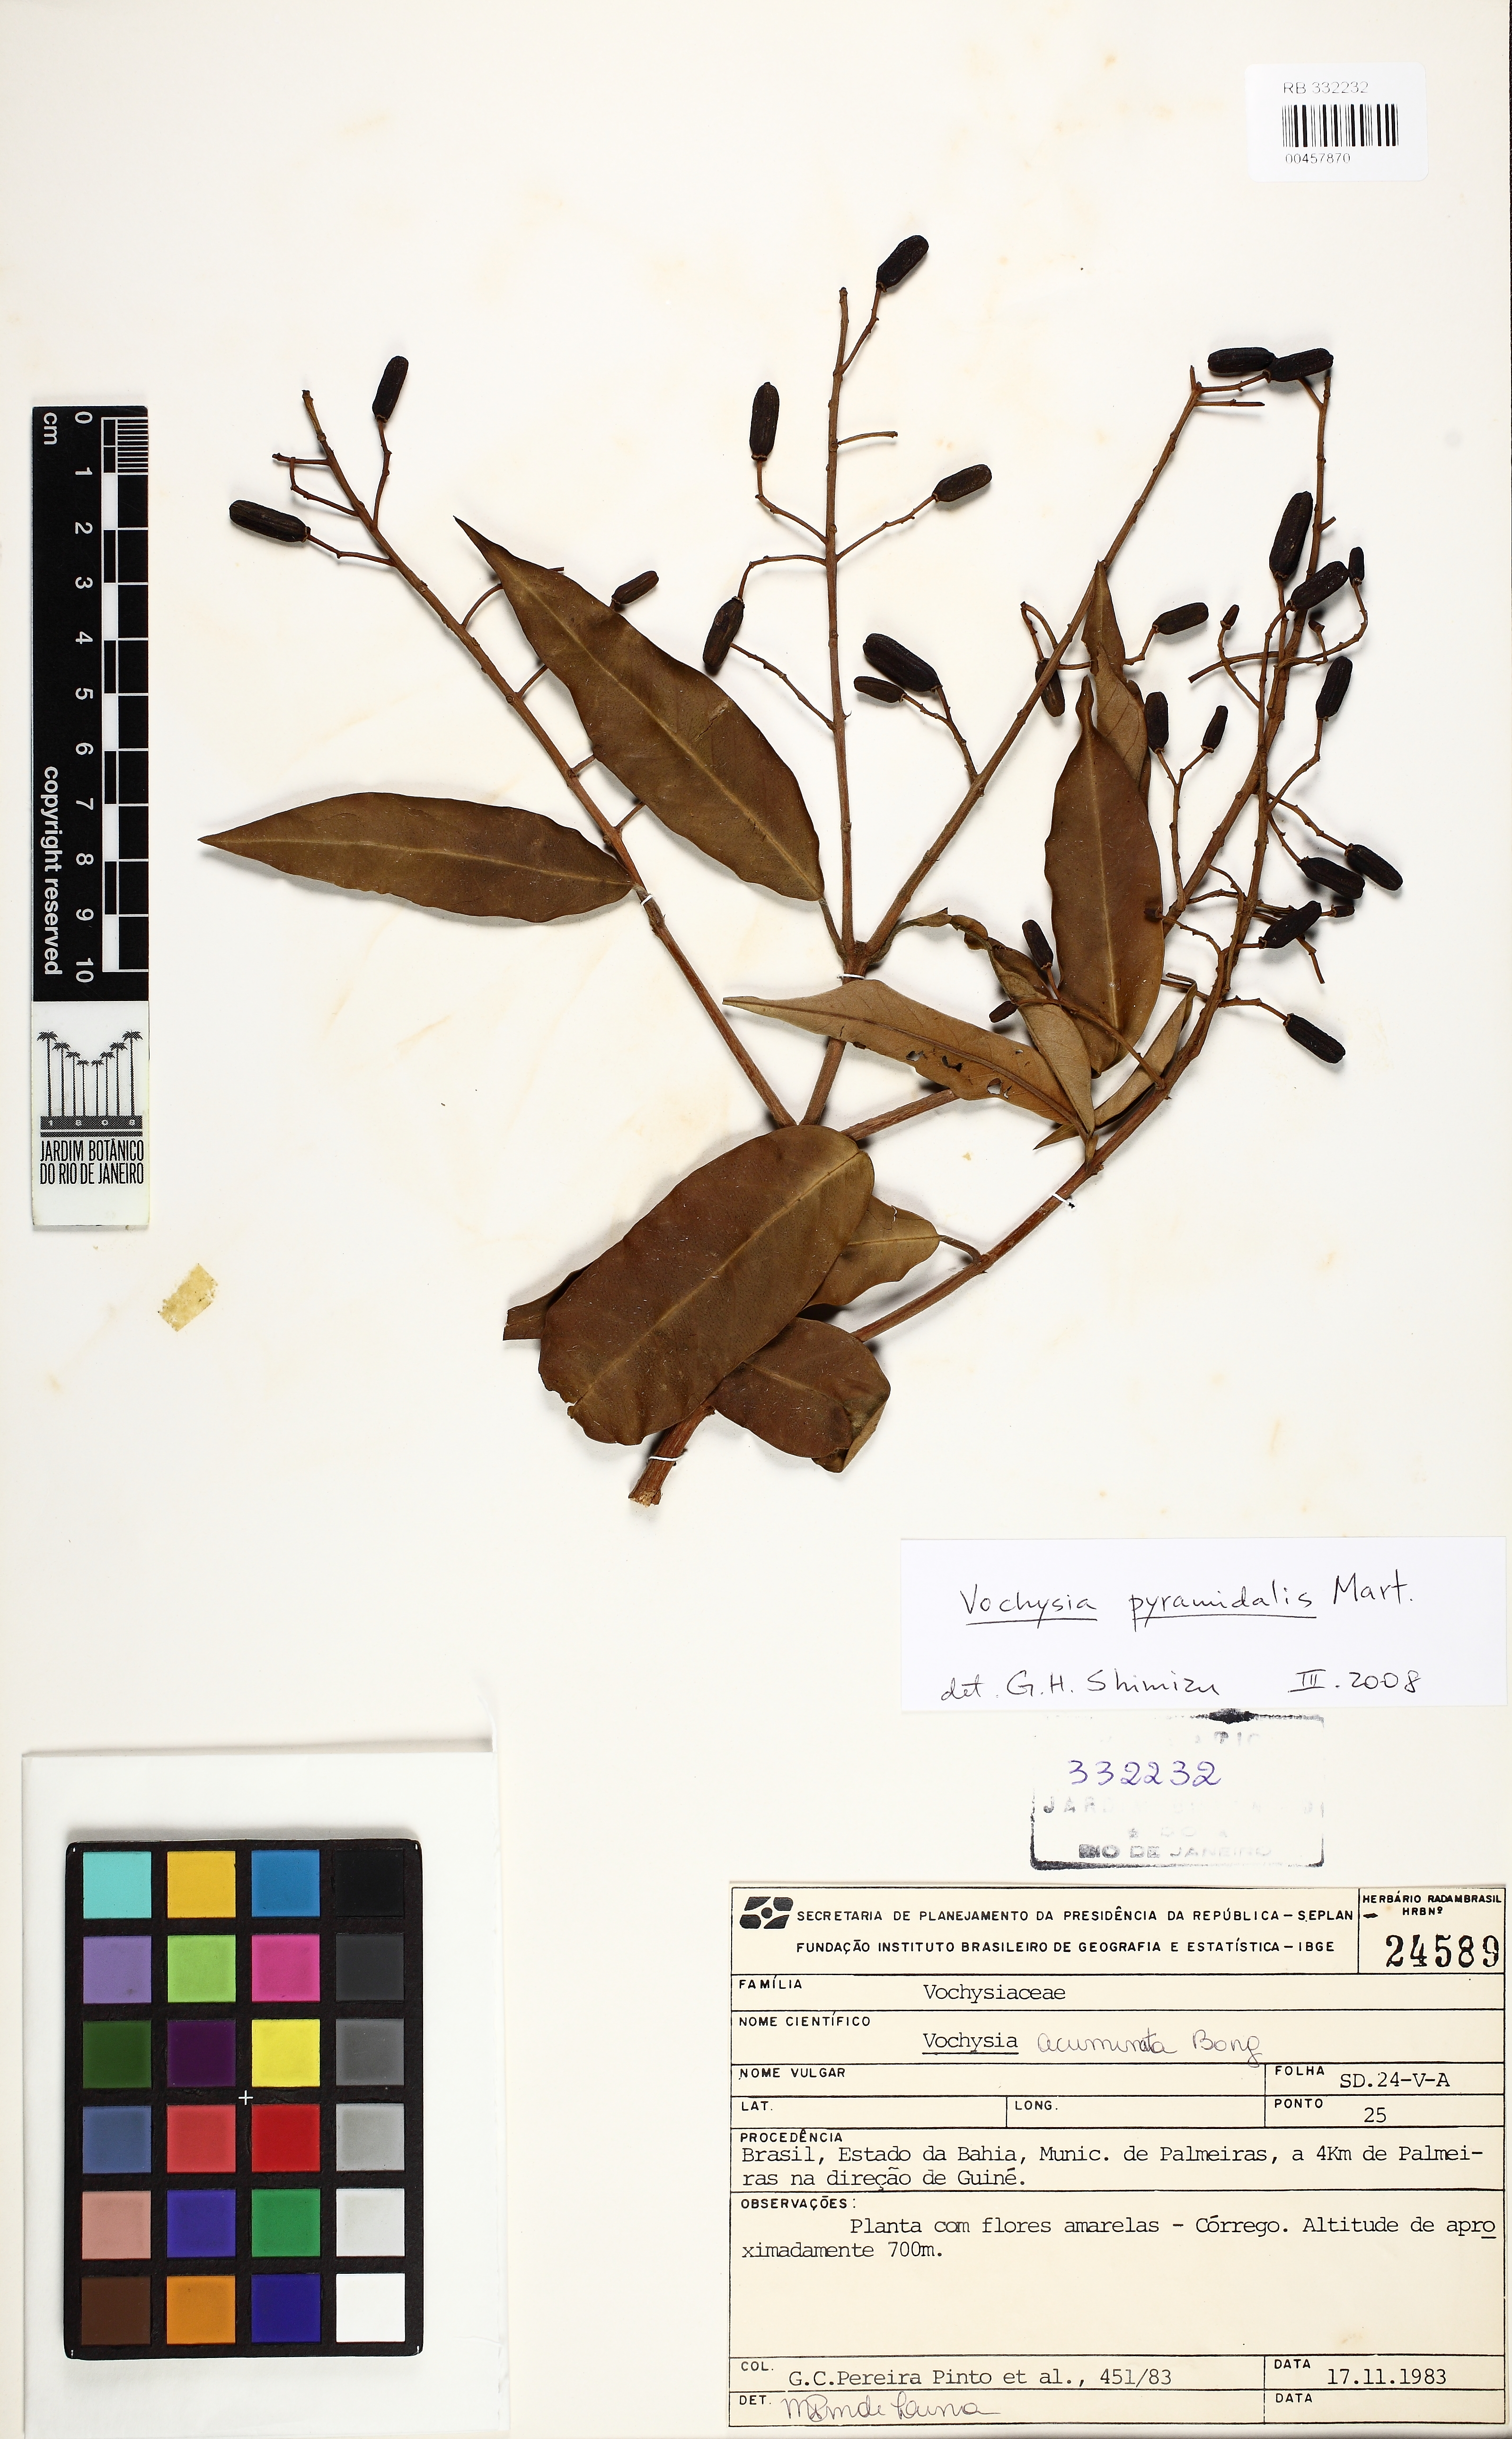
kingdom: Plantae
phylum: Tracheophyta
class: Magnoliopsida
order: Myrtales
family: Vochysiaceae
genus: Vochysia
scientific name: Vochysia pyramidalis
